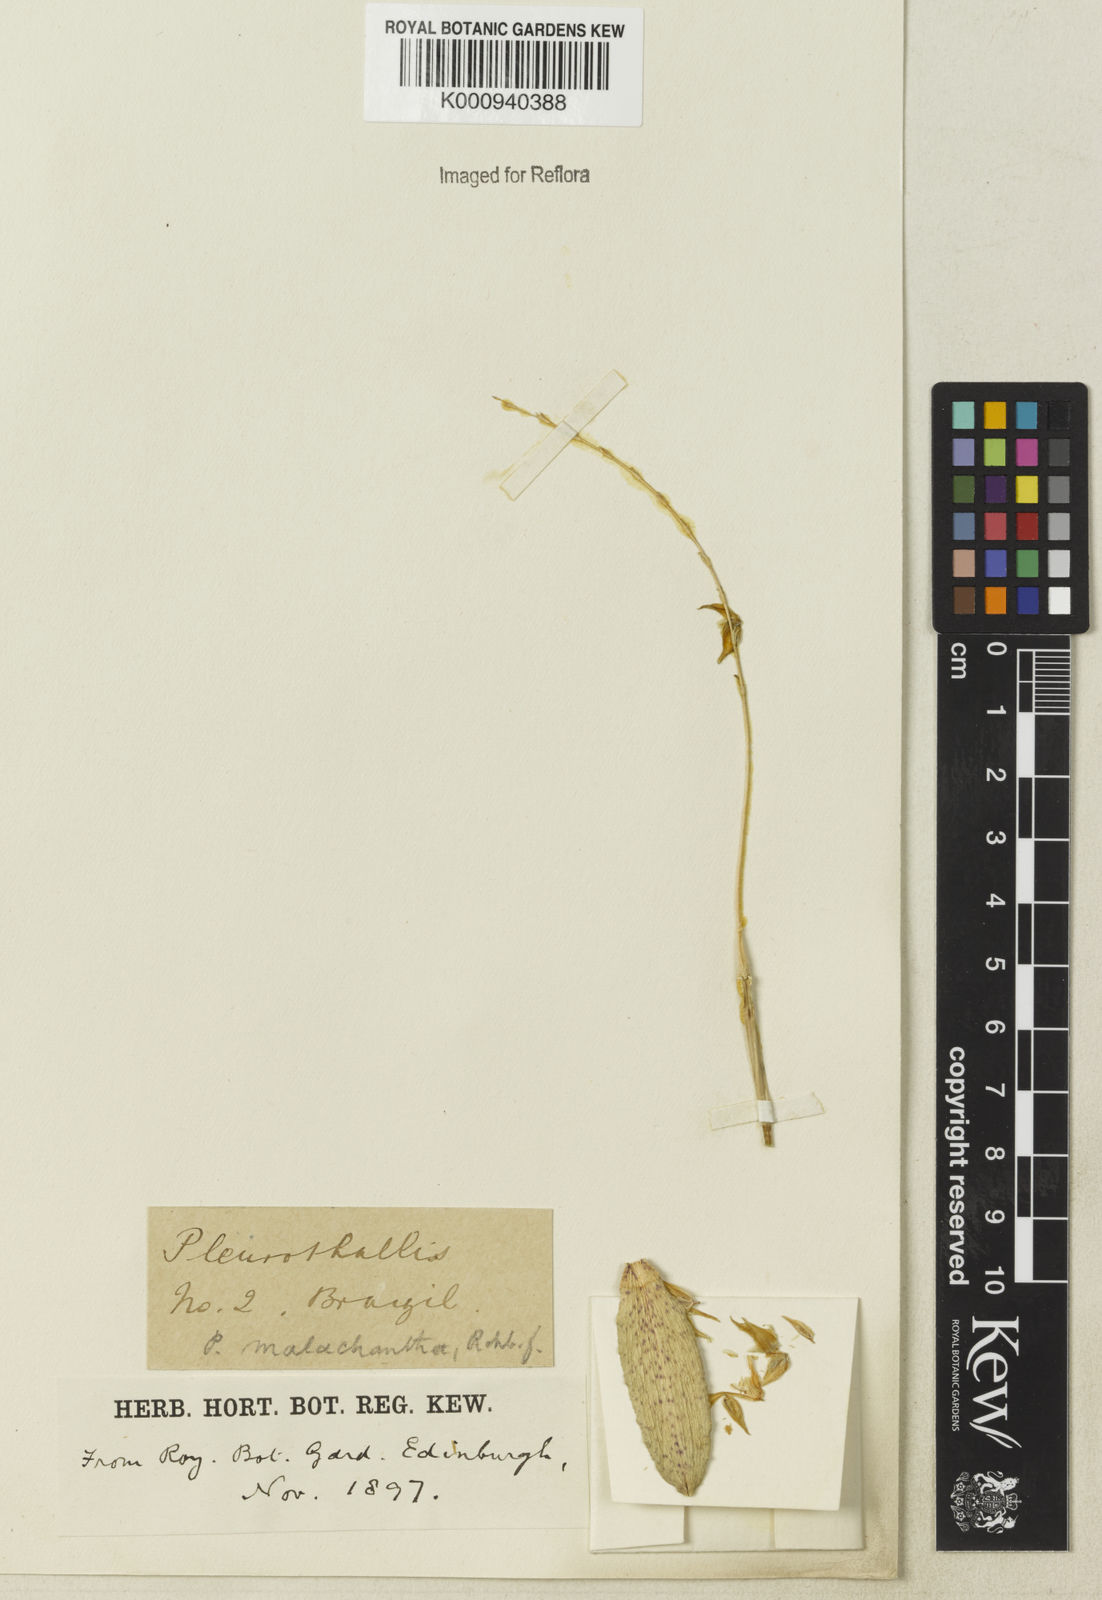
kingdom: Plantae
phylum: Tracheophyta
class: Liliopsida
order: Asparagales
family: Orchidaceae
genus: Pleurothallis
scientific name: Pleurothallis
